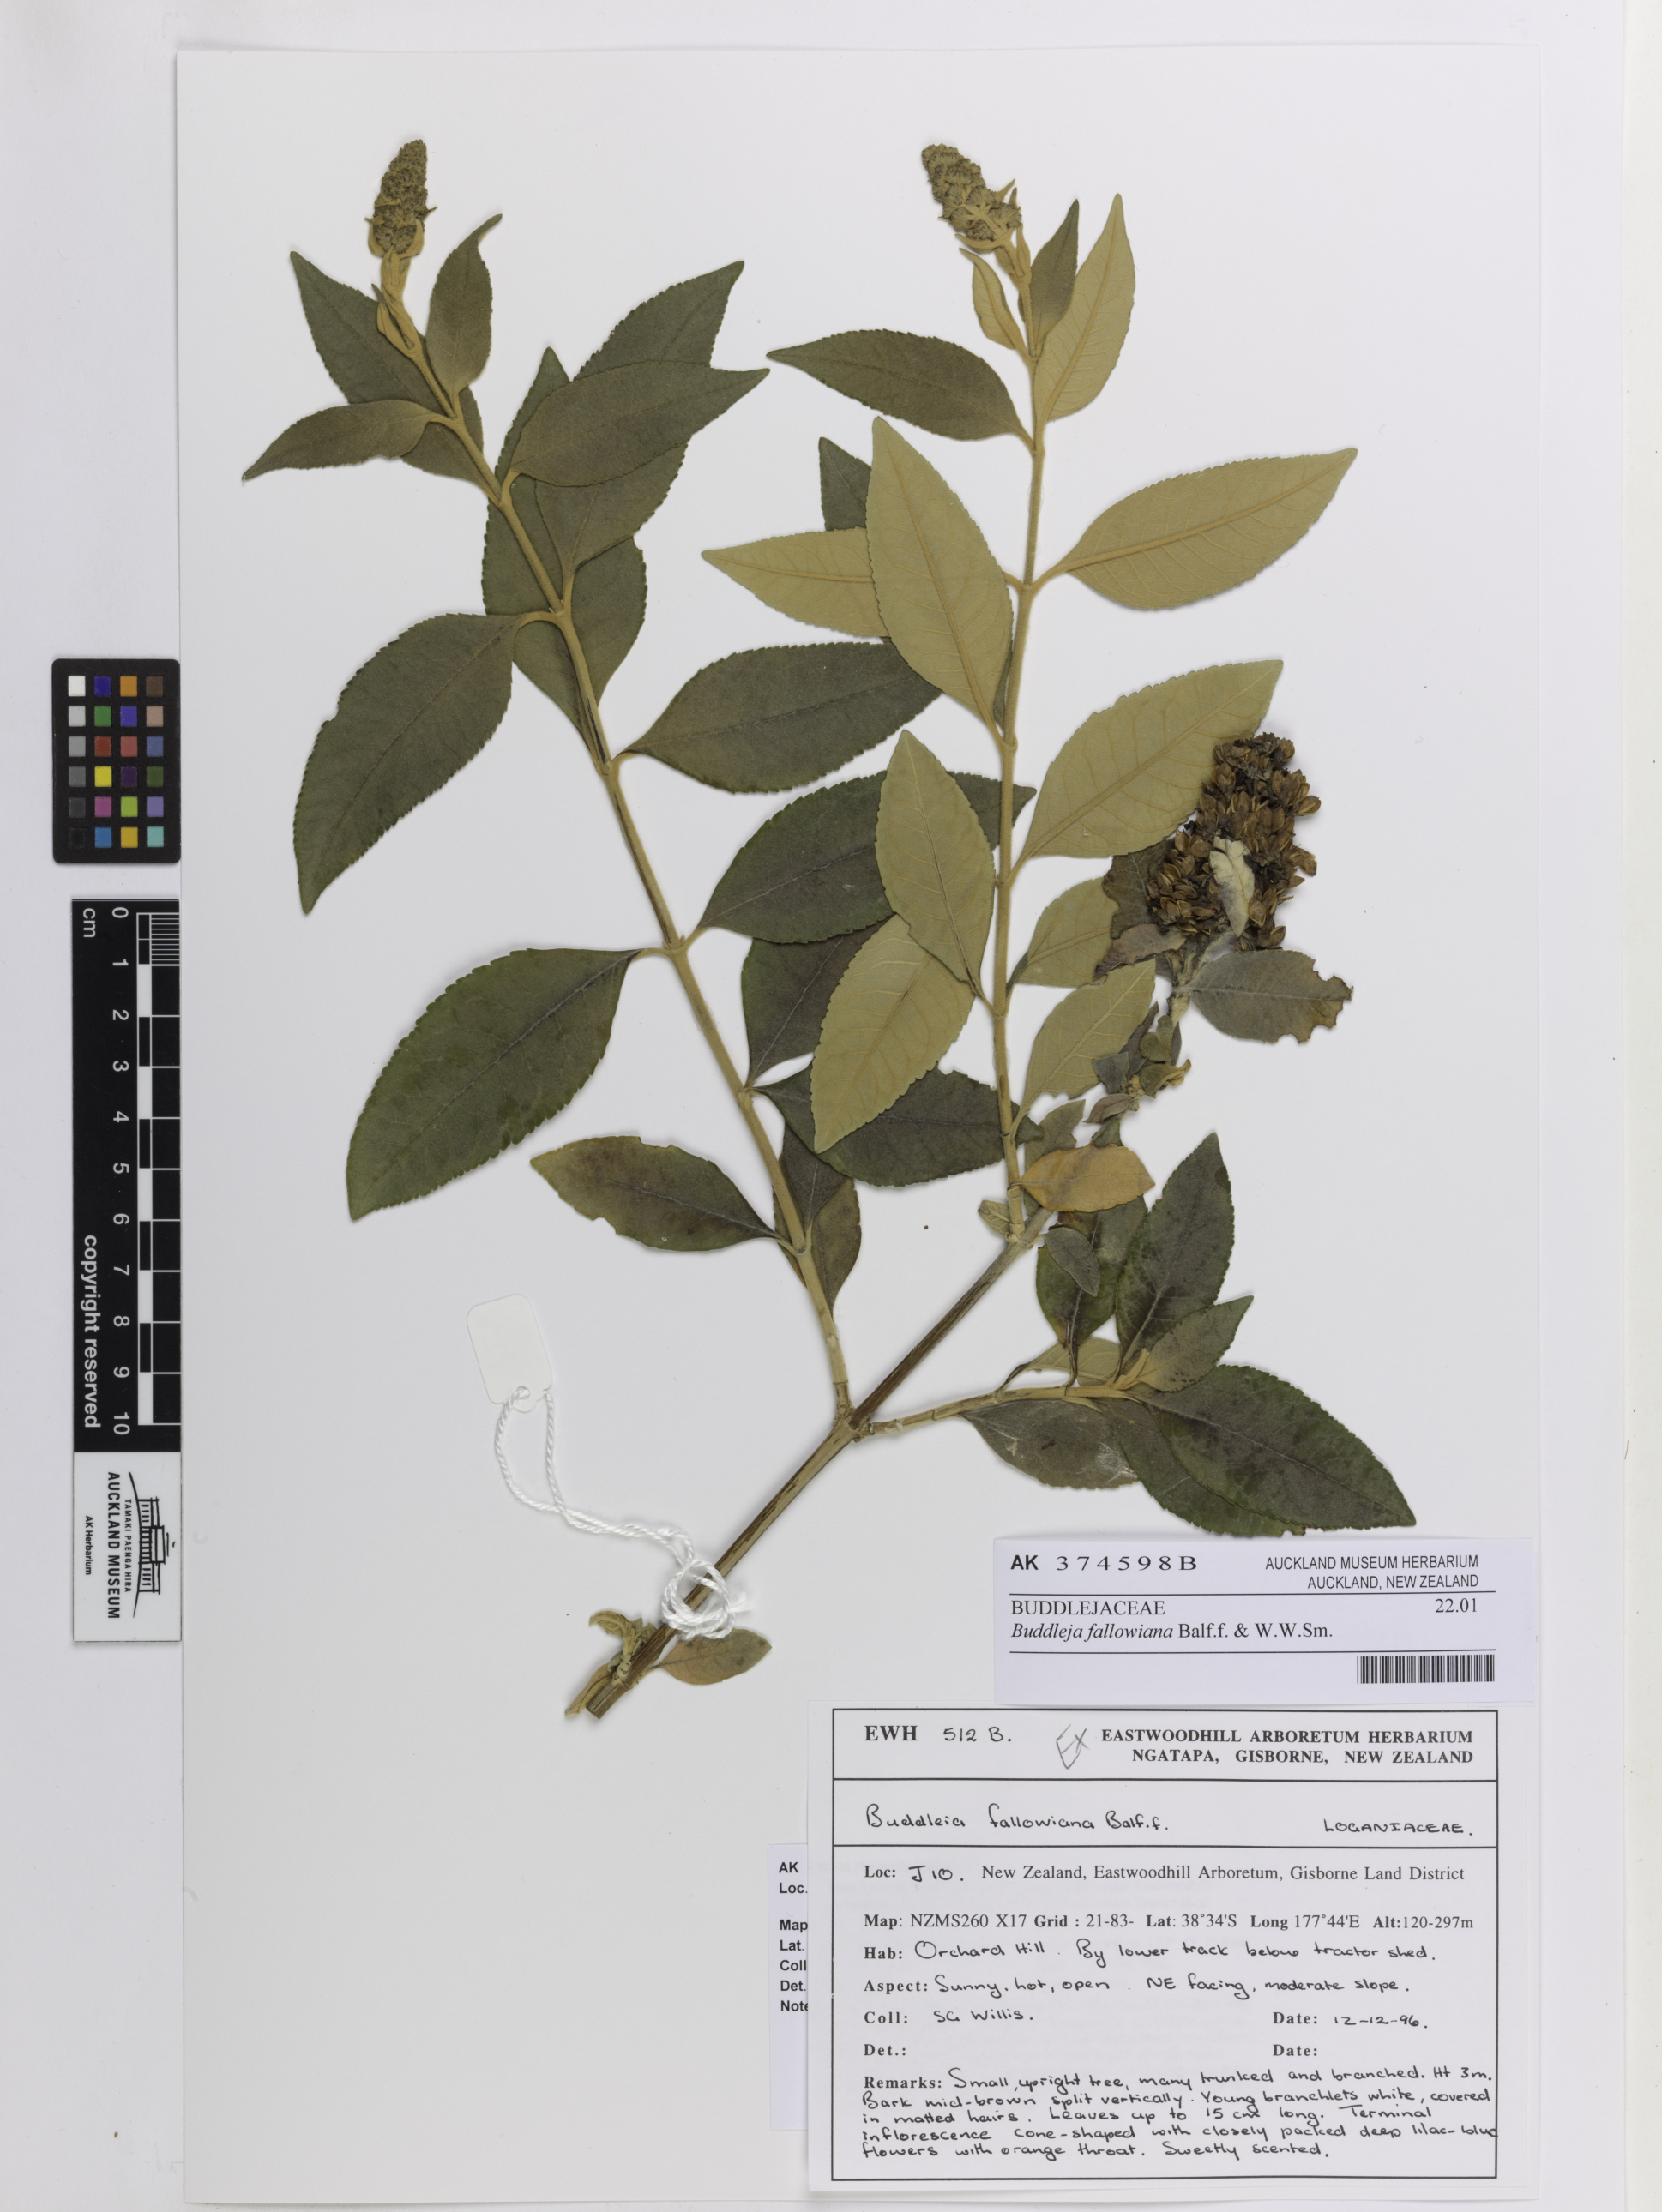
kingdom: Plantae
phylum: Tracheophyta
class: Magnoliopsida
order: Lamiales
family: Scrophulariaceae
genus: Buddleja
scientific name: Buddleja fallowiana
